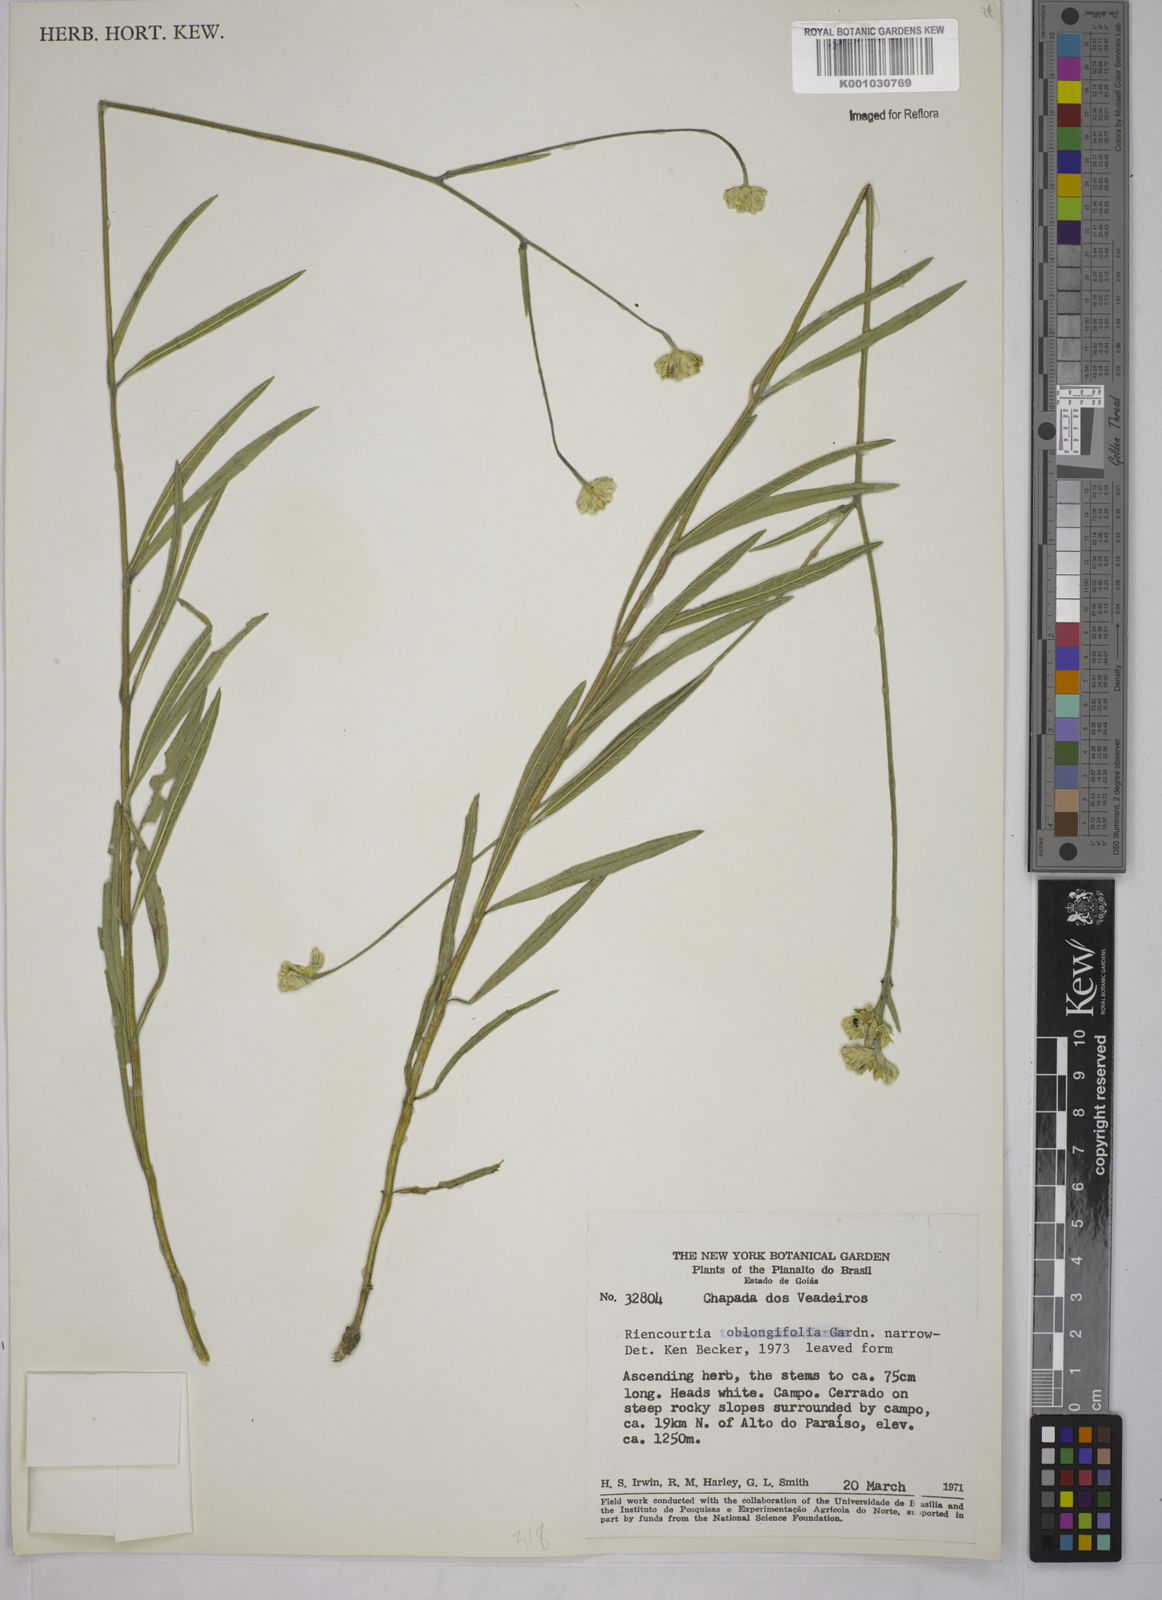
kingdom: Plantae
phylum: Tracheophyta
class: Magnoliopsida
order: Asterales
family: Asteraceae
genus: Riencourtia
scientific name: Riencourtia oblongifolia
